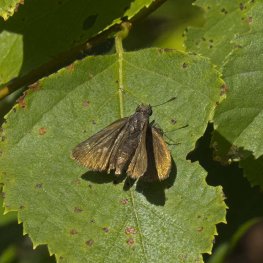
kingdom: Animalia
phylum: Arthropoda
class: Insecta
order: Lepidoptera
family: Hesperiidae
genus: Euphyes
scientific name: Euphyes vestris
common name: Dun Skipper
